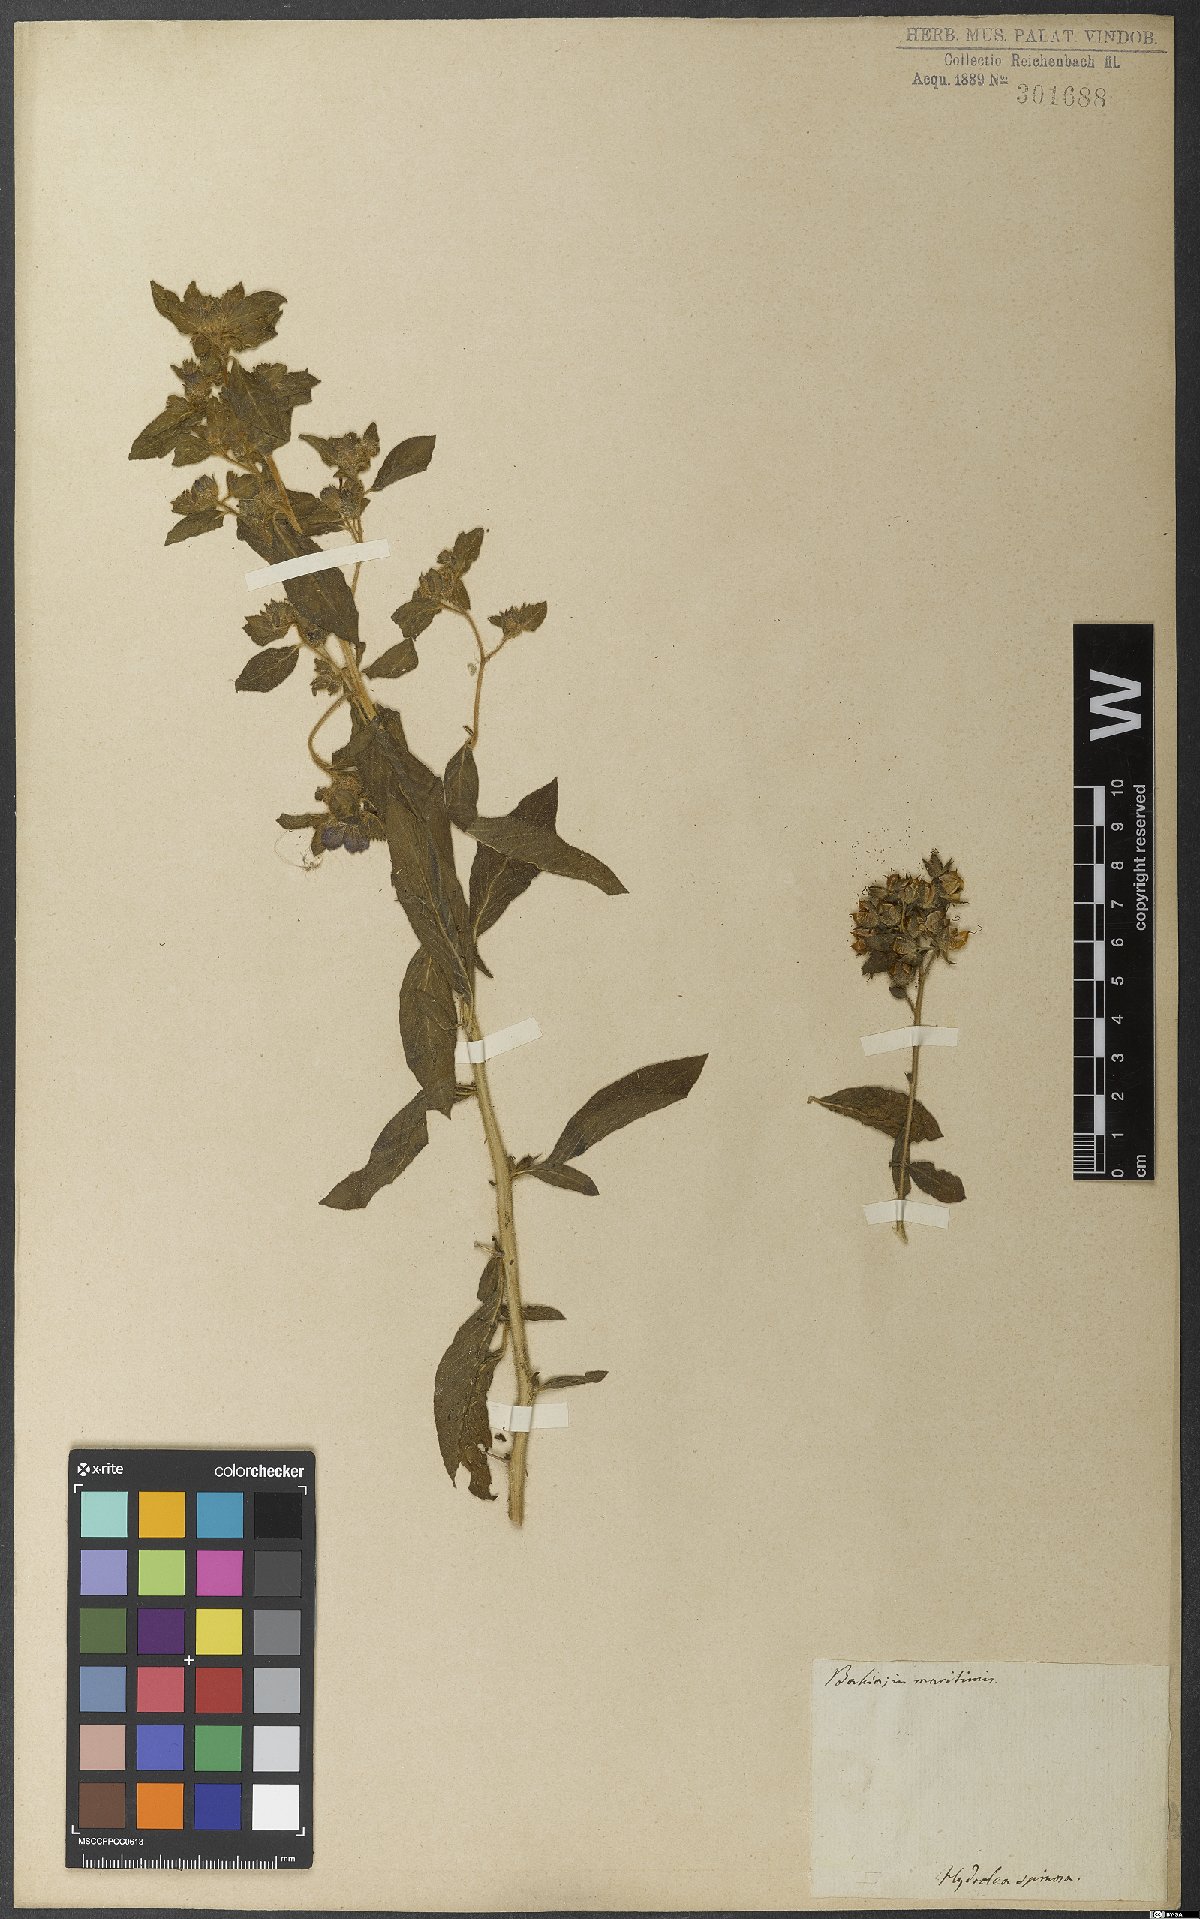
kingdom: Plantae
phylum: Tracheophyta
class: Magnoliopsida
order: Solanales
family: Hydroleaceae
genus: Hydrolea
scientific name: Hydrolea spinosa
